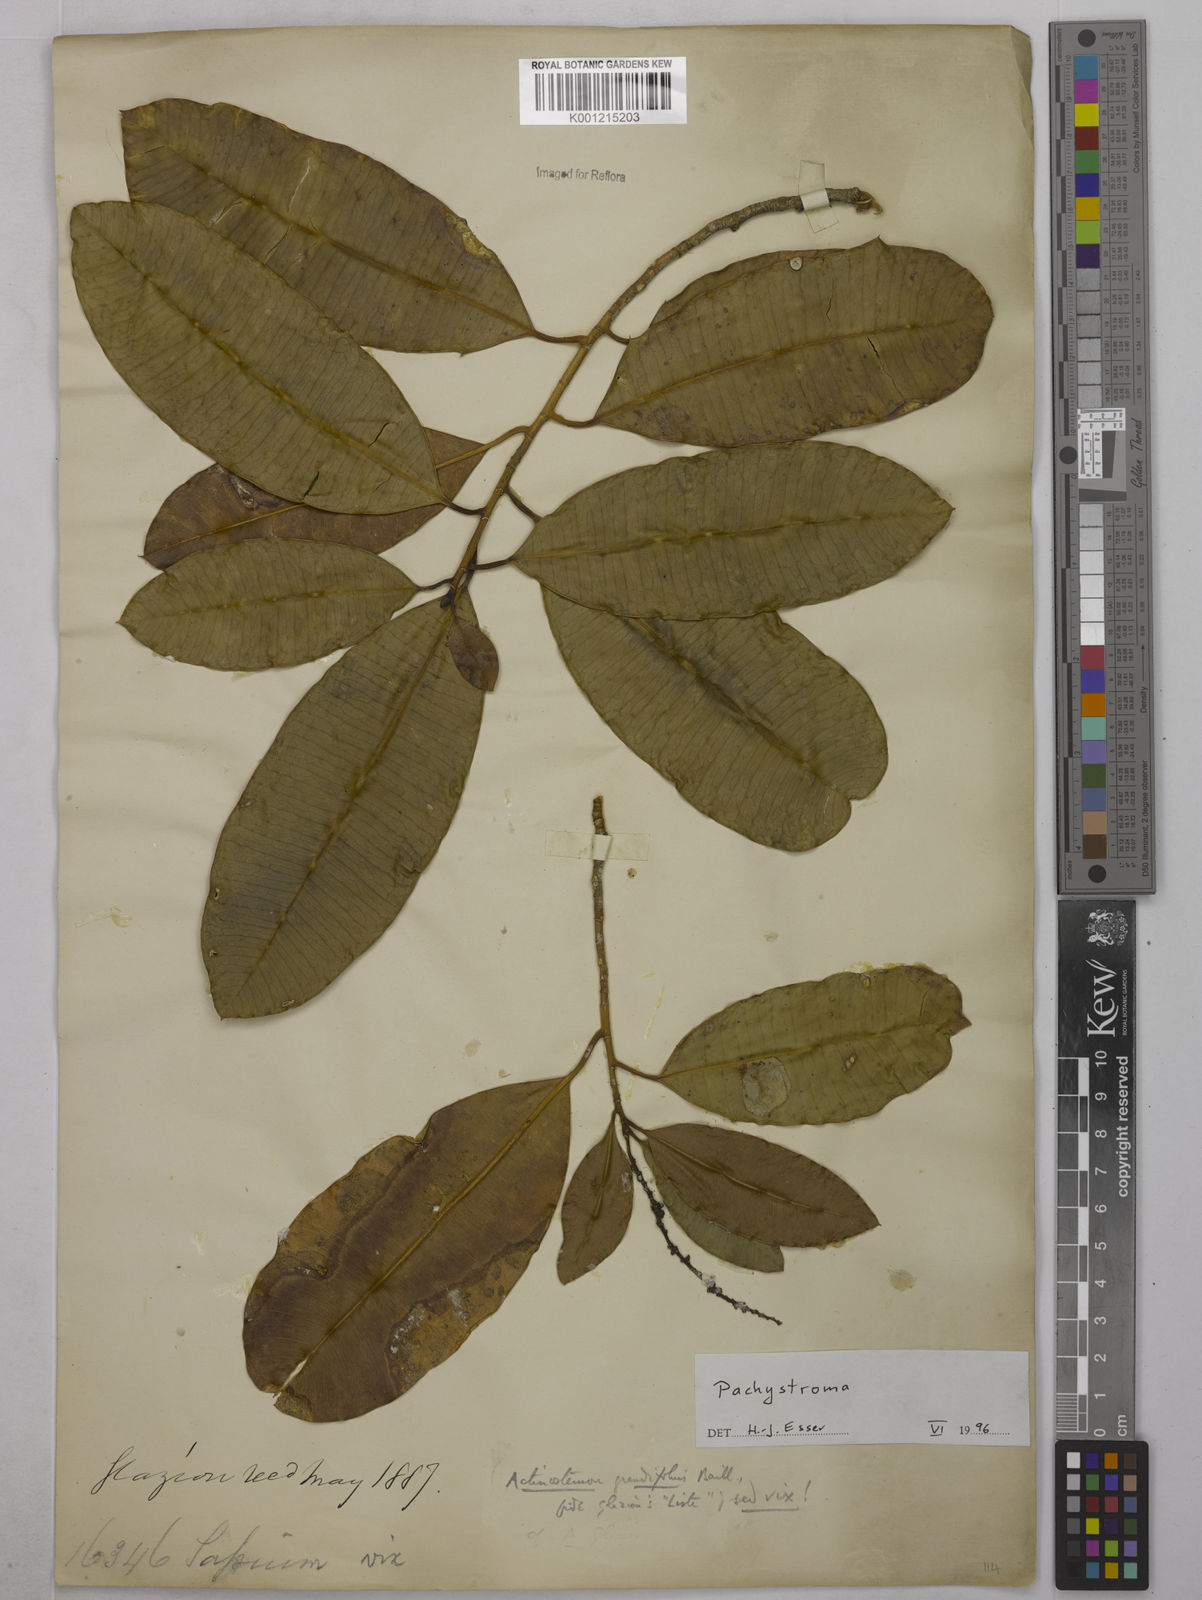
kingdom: Plantae
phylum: Tracheophyta
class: Magnoliopsida
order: Malpighiales
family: Euphorbiaceae
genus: Pachystroma
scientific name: Pachystroma longifolium
